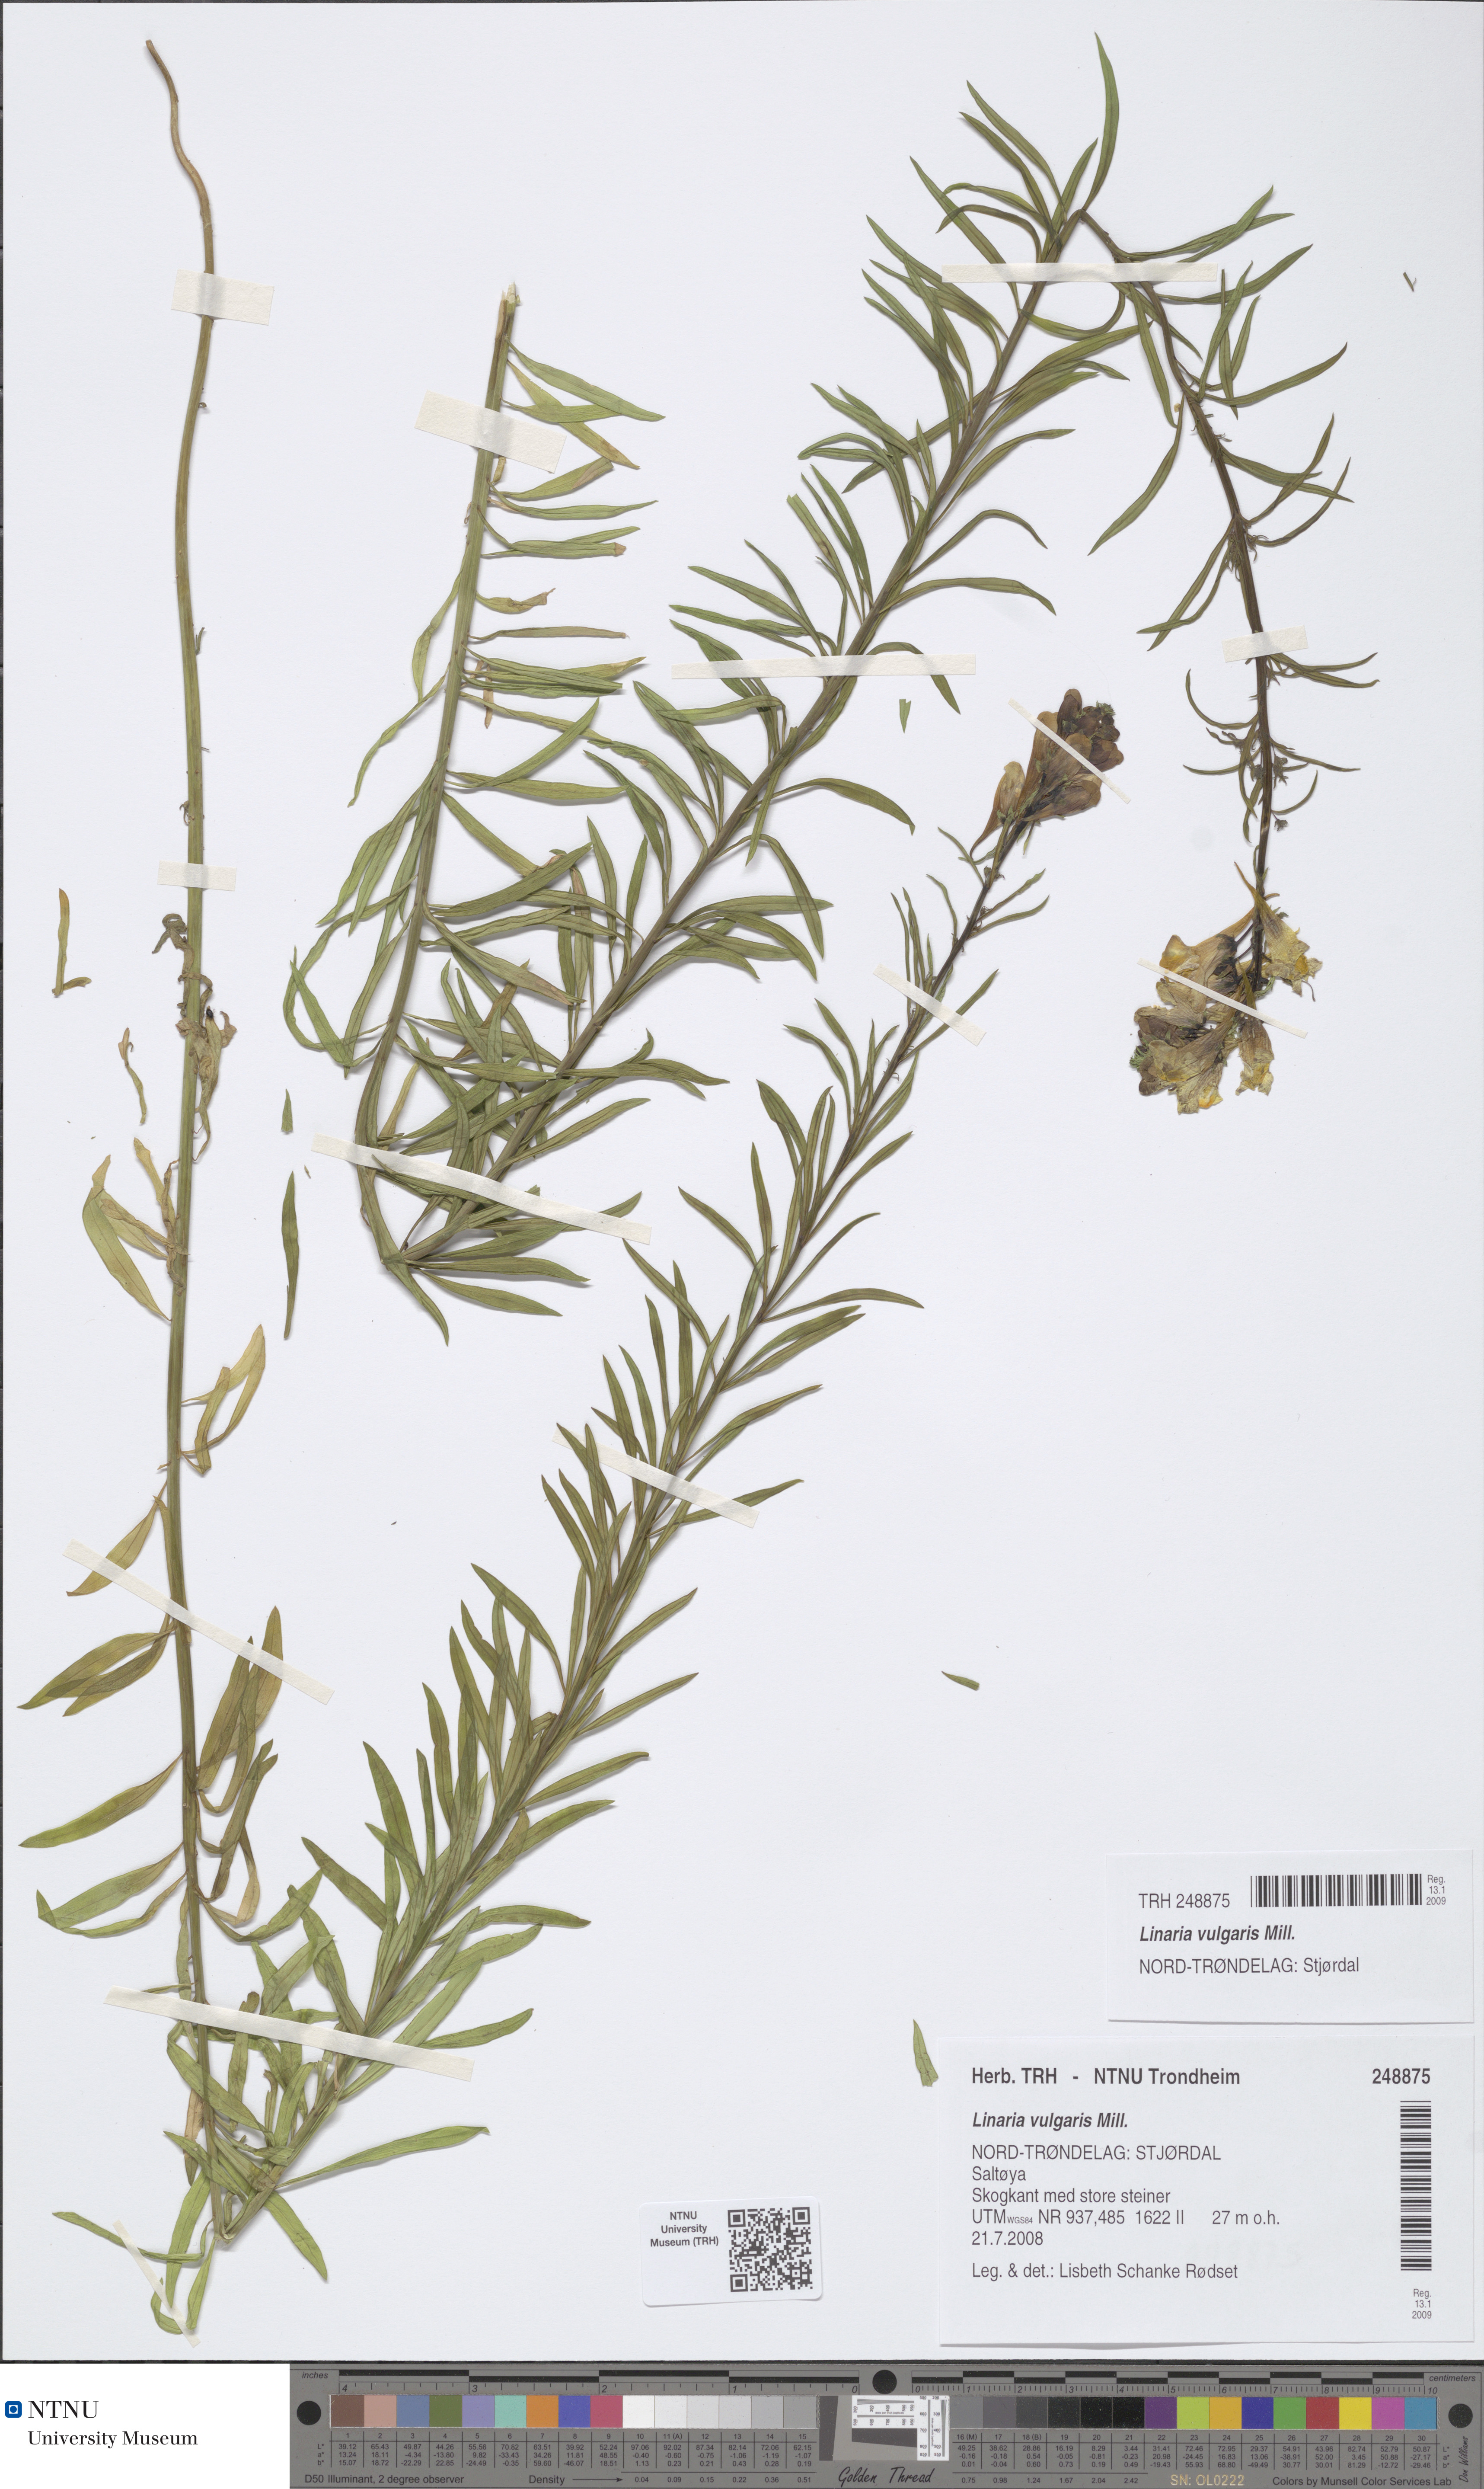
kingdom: Plantae
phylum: Tracheophyta
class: Magnoliopsida
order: Lamiales
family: Plantaginaceae
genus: Linaria
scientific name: Linaria vulgaris
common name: Butter and eggs
